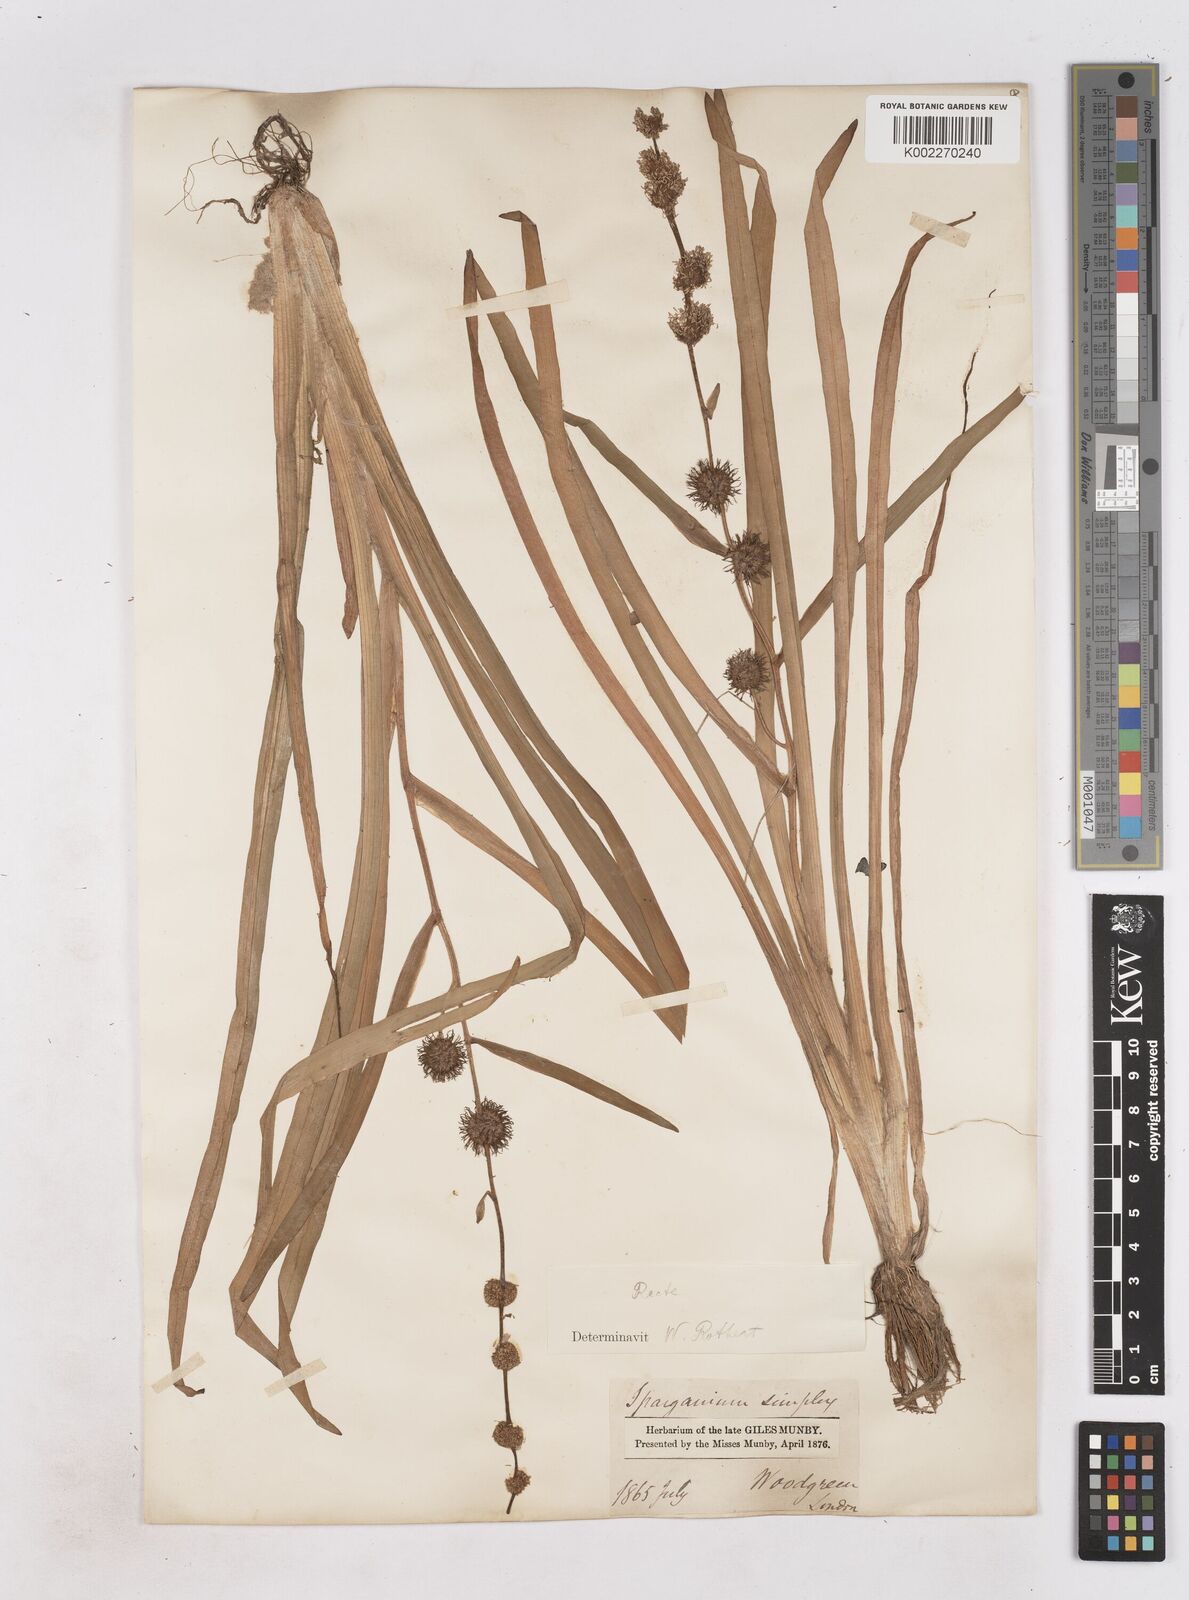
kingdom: Plantae
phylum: Tracheophyta
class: Liliopsida
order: Poales
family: Typhaceae
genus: Sparganium
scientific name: Sparganium emersum
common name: Unbranched bur-reed
